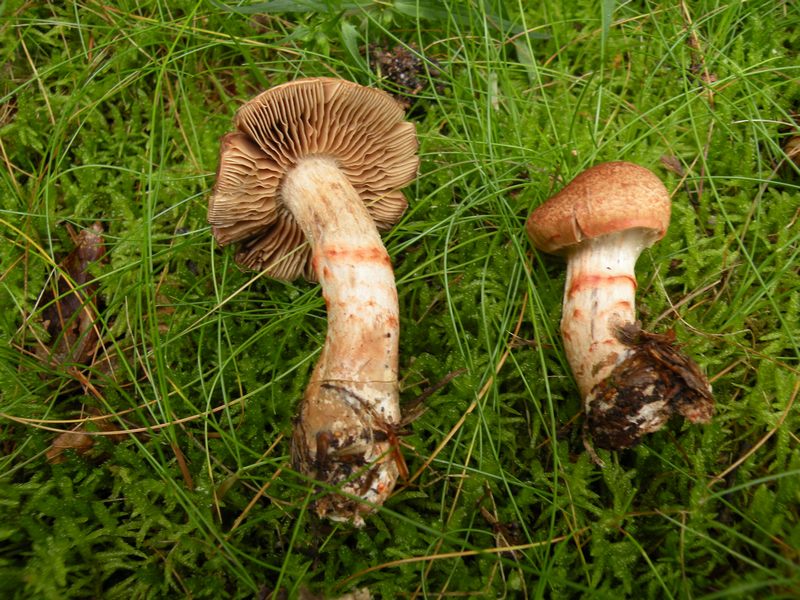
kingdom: Fungi
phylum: Basidiomycota
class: Agaricomycetes
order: Agaricales
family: Cortinariaceae
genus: Cortinarius
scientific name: Cortinarius armillatus
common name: cinnoberbæltet slørhat
